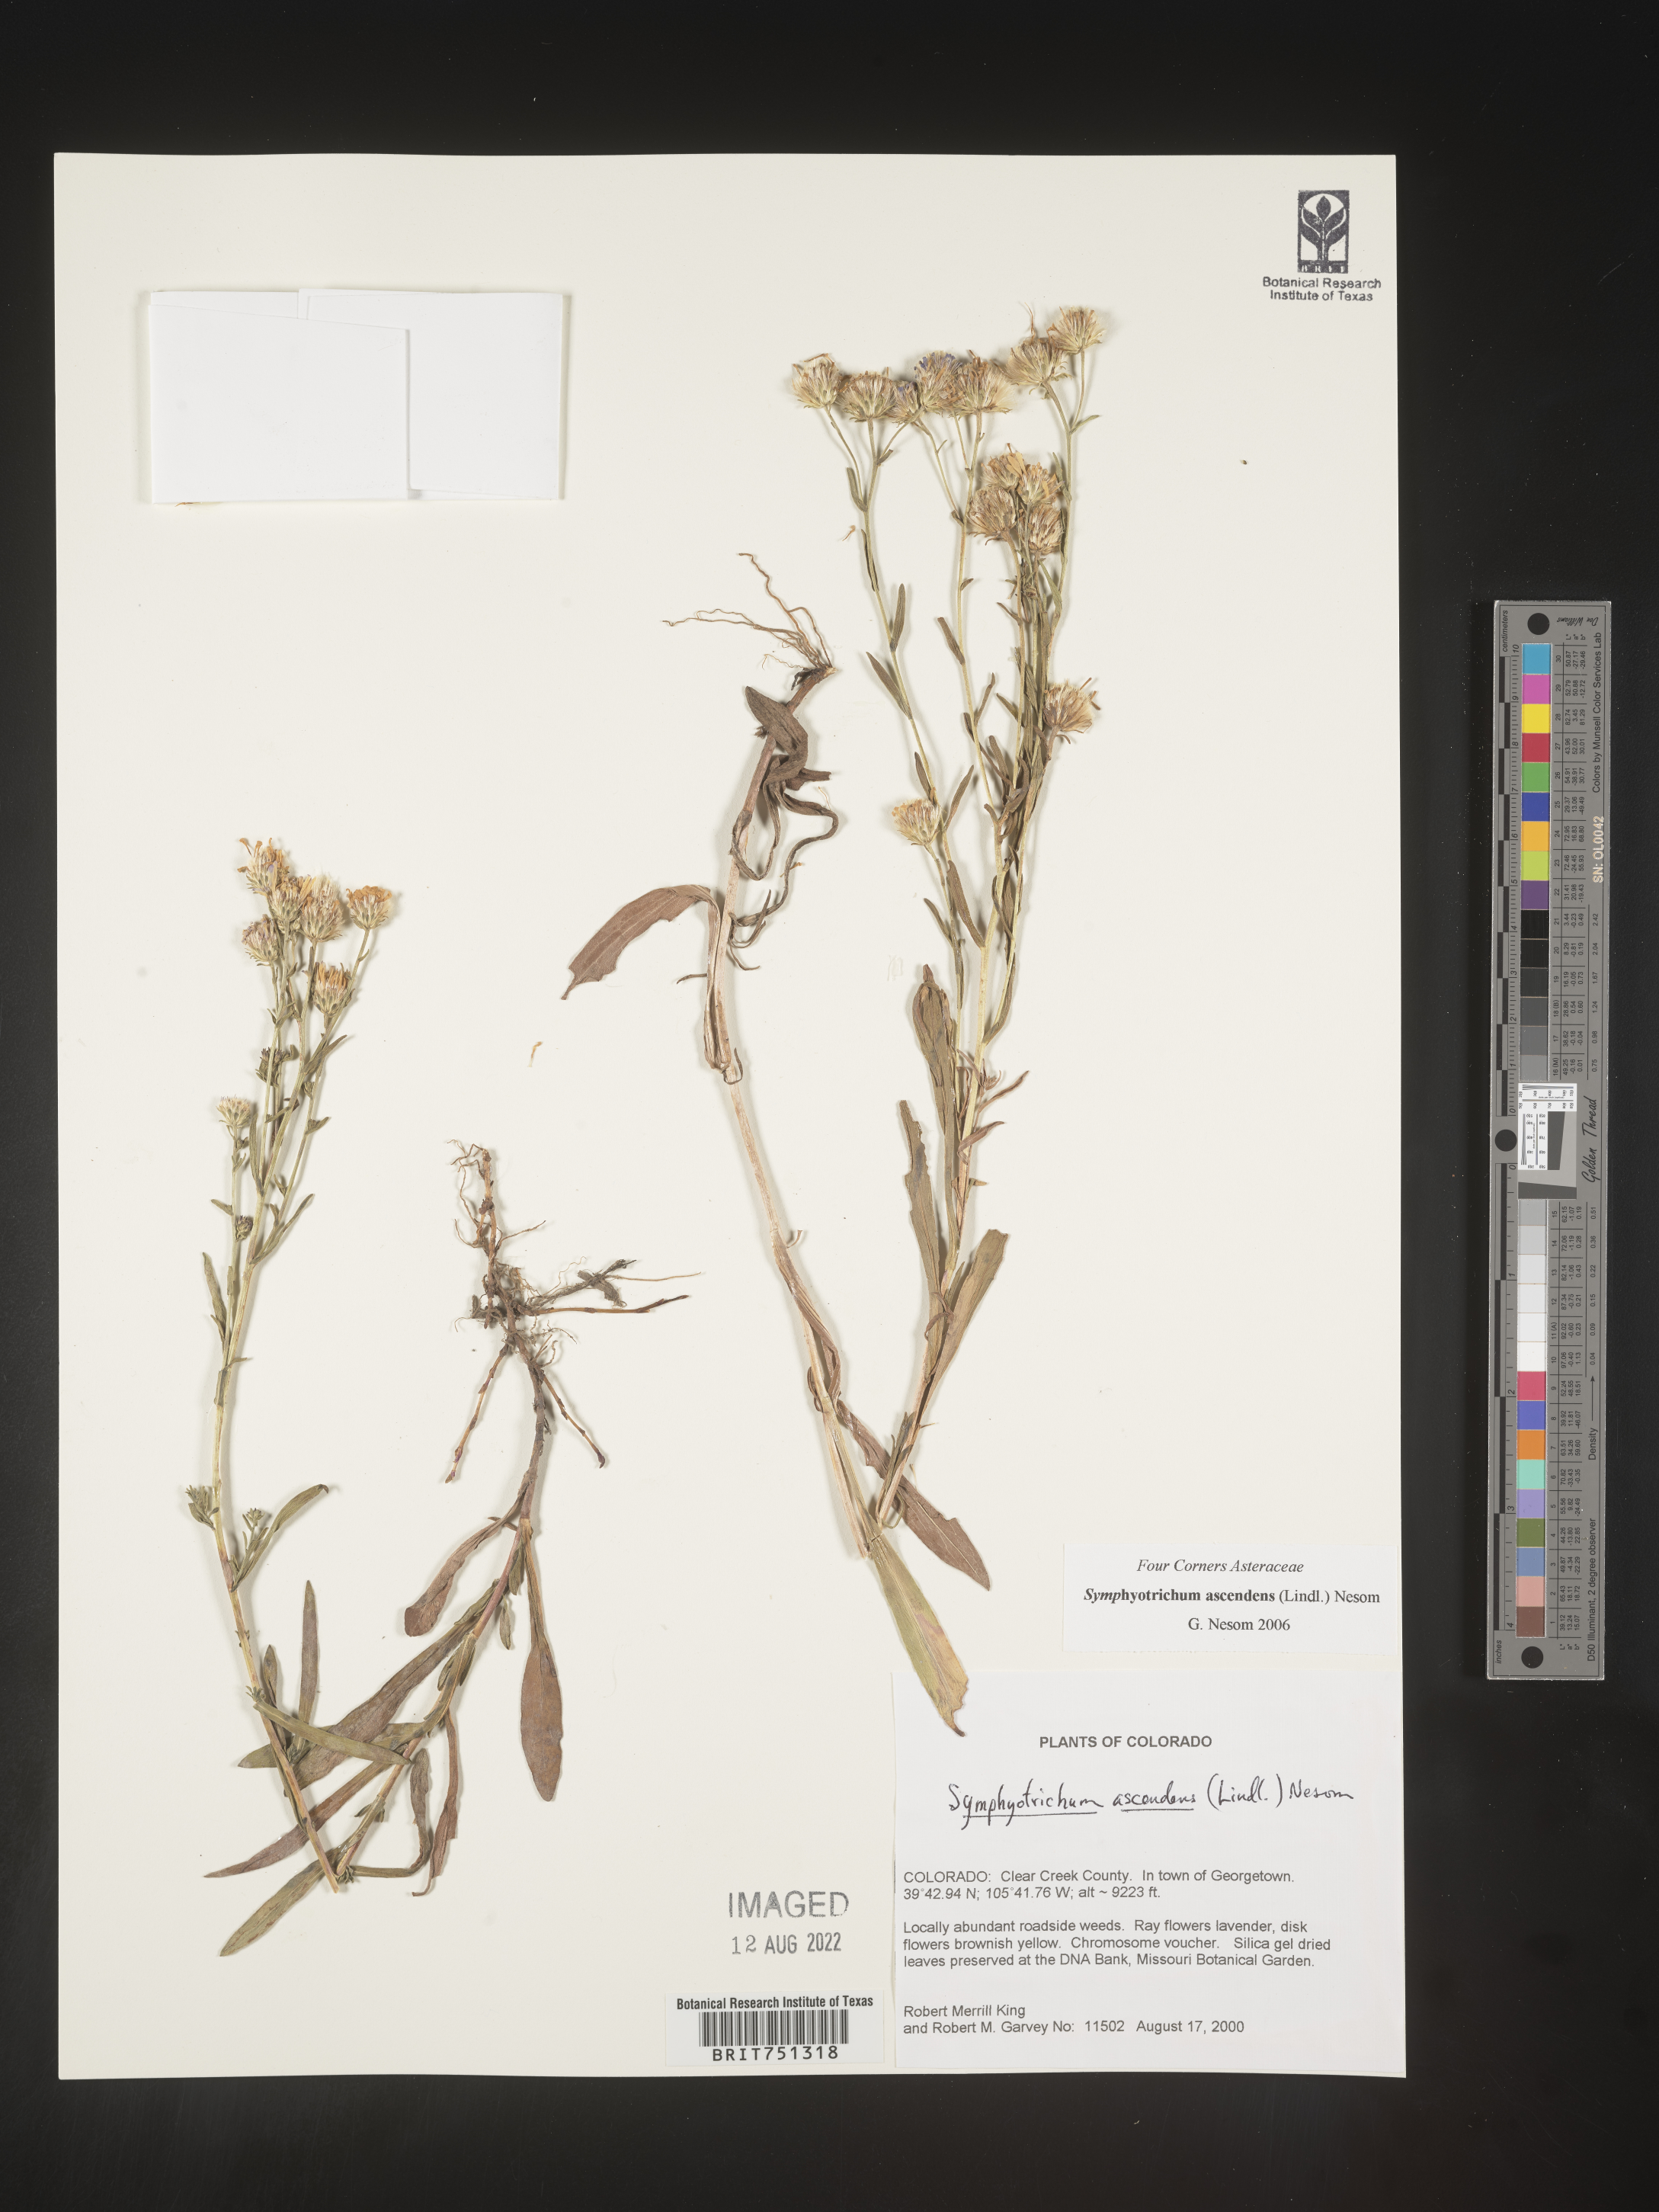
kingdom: Plantae
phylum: Tracheophyta
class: Magnoliopsida
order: Asterales
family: Asteraceae
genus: Symphyotrichum
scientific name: Symphyotrichum ascendens
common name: Intermountain aster
